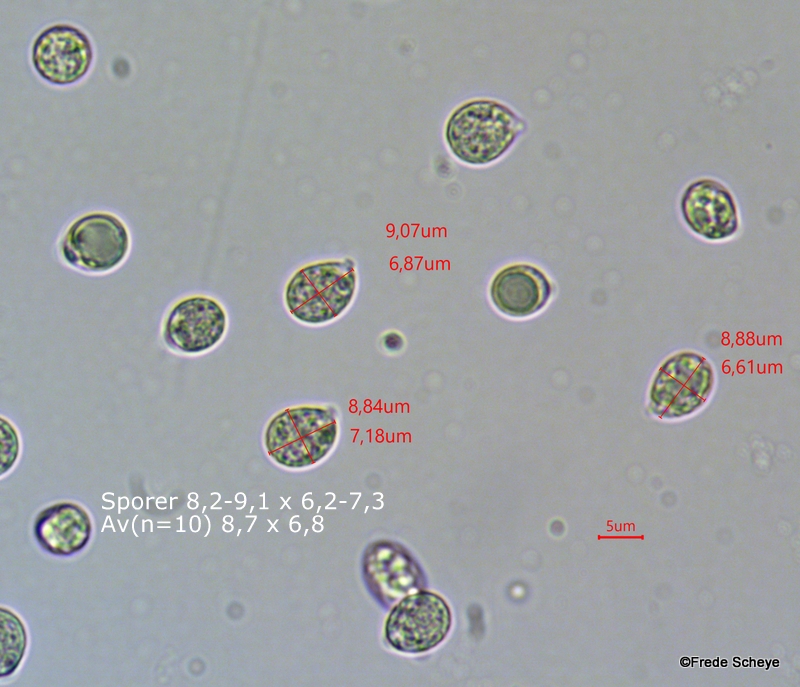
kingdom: Fungi
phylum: Basidiomycota
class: Agaricomycetes
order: Agaricales
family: Amanitaceae
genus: Amanita
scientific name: Amanita phalloides
